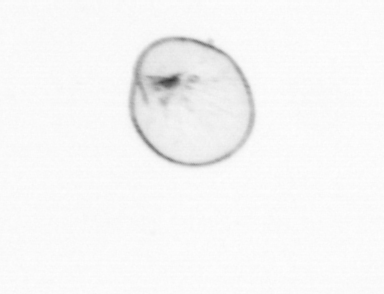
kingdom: Chromista
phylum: Myzozoa
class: Dinophyceae
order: Noctilucales
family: Noctilucaceae
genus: Noctiluca
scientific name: Noctiluca scintillans
